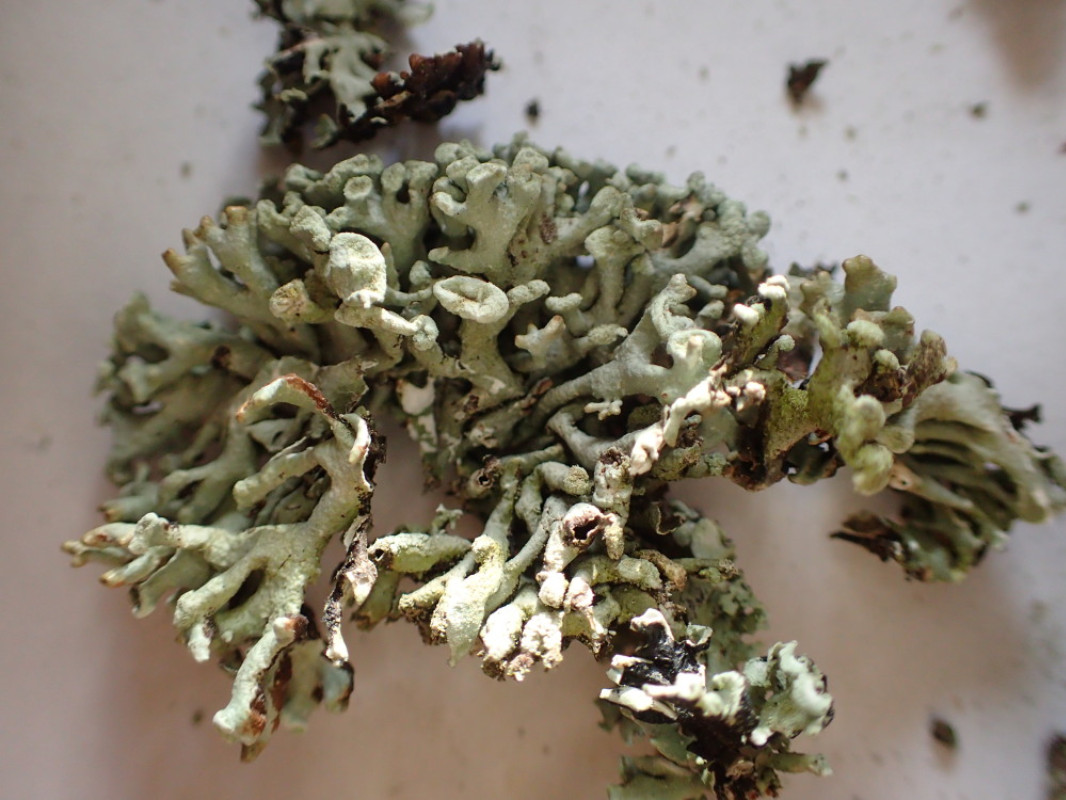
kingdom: Fungi
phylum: Ascomycota
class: Lecanoromycetes
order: Lecanorales
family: Parmeliaceae
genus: Hypogymnia
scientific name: Hypogymnia tubulosa
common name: finger-kvistlav
